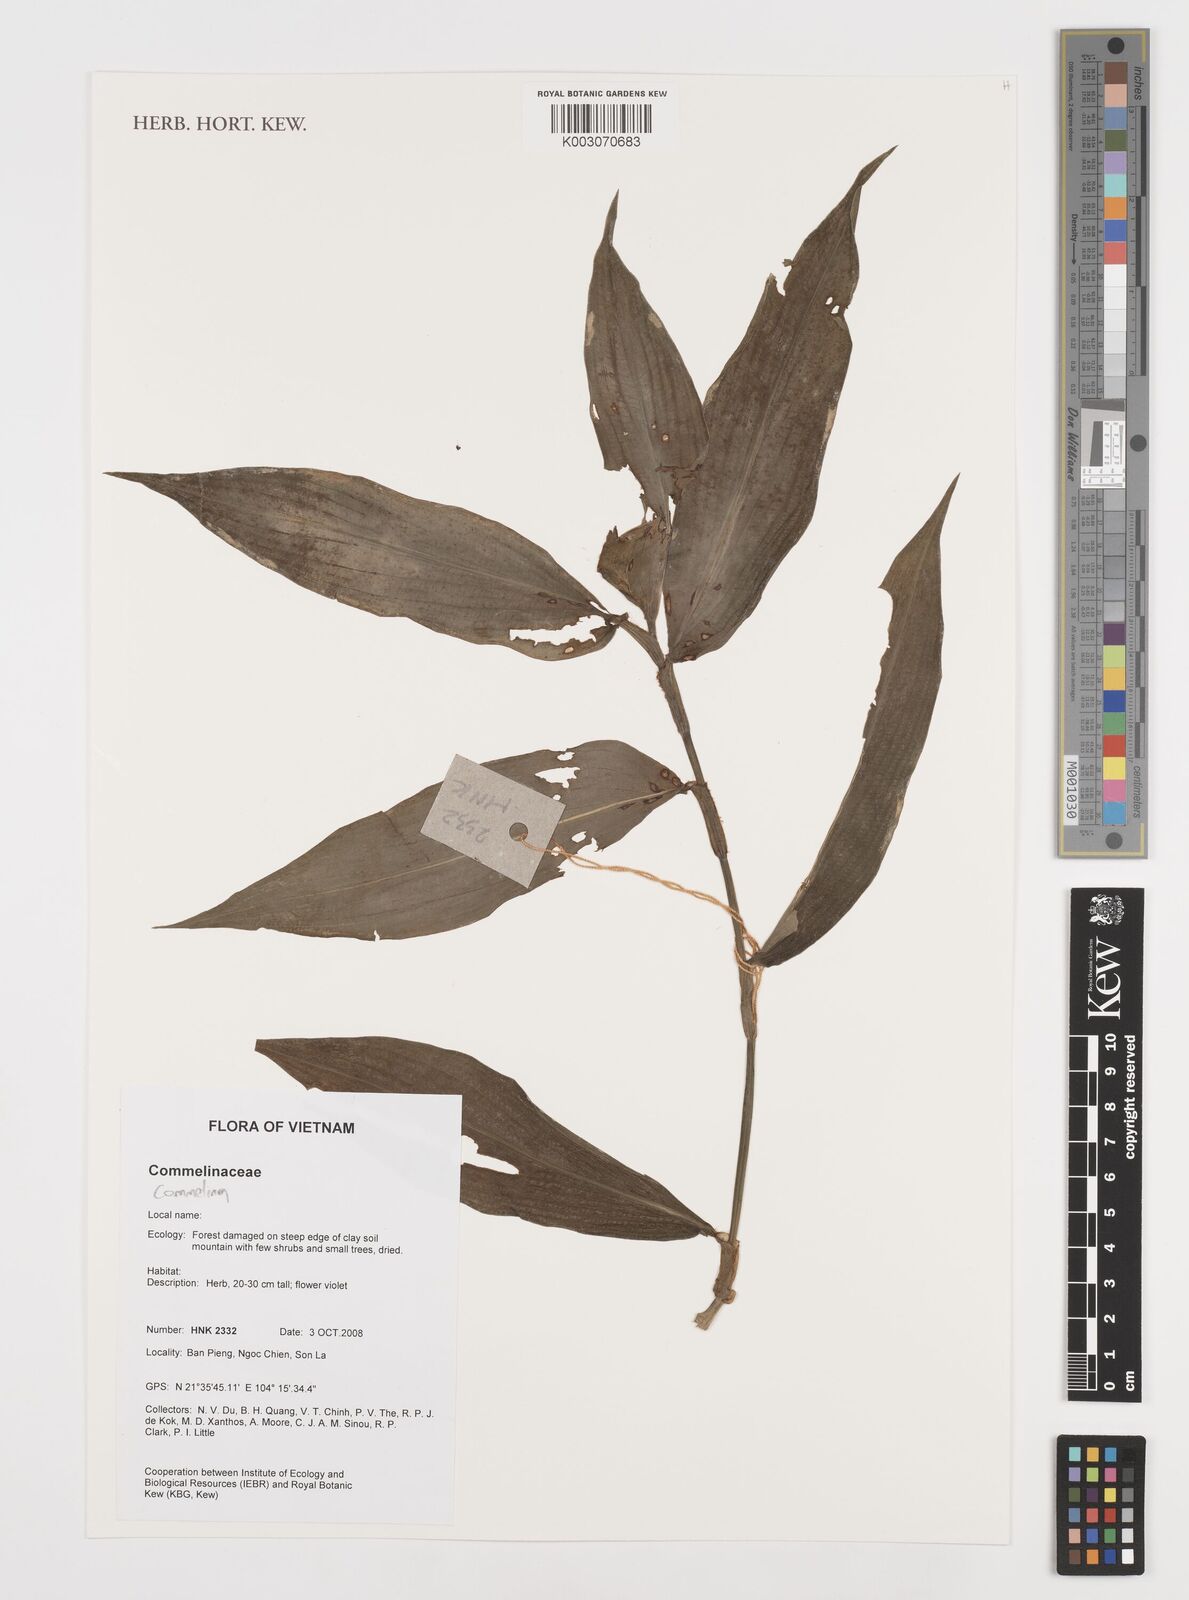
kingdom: Plantae
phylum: Tracheophyta
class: Liliopsida
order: Commelinales
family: Commelinaceae
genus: Commelina
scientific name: Commelina
